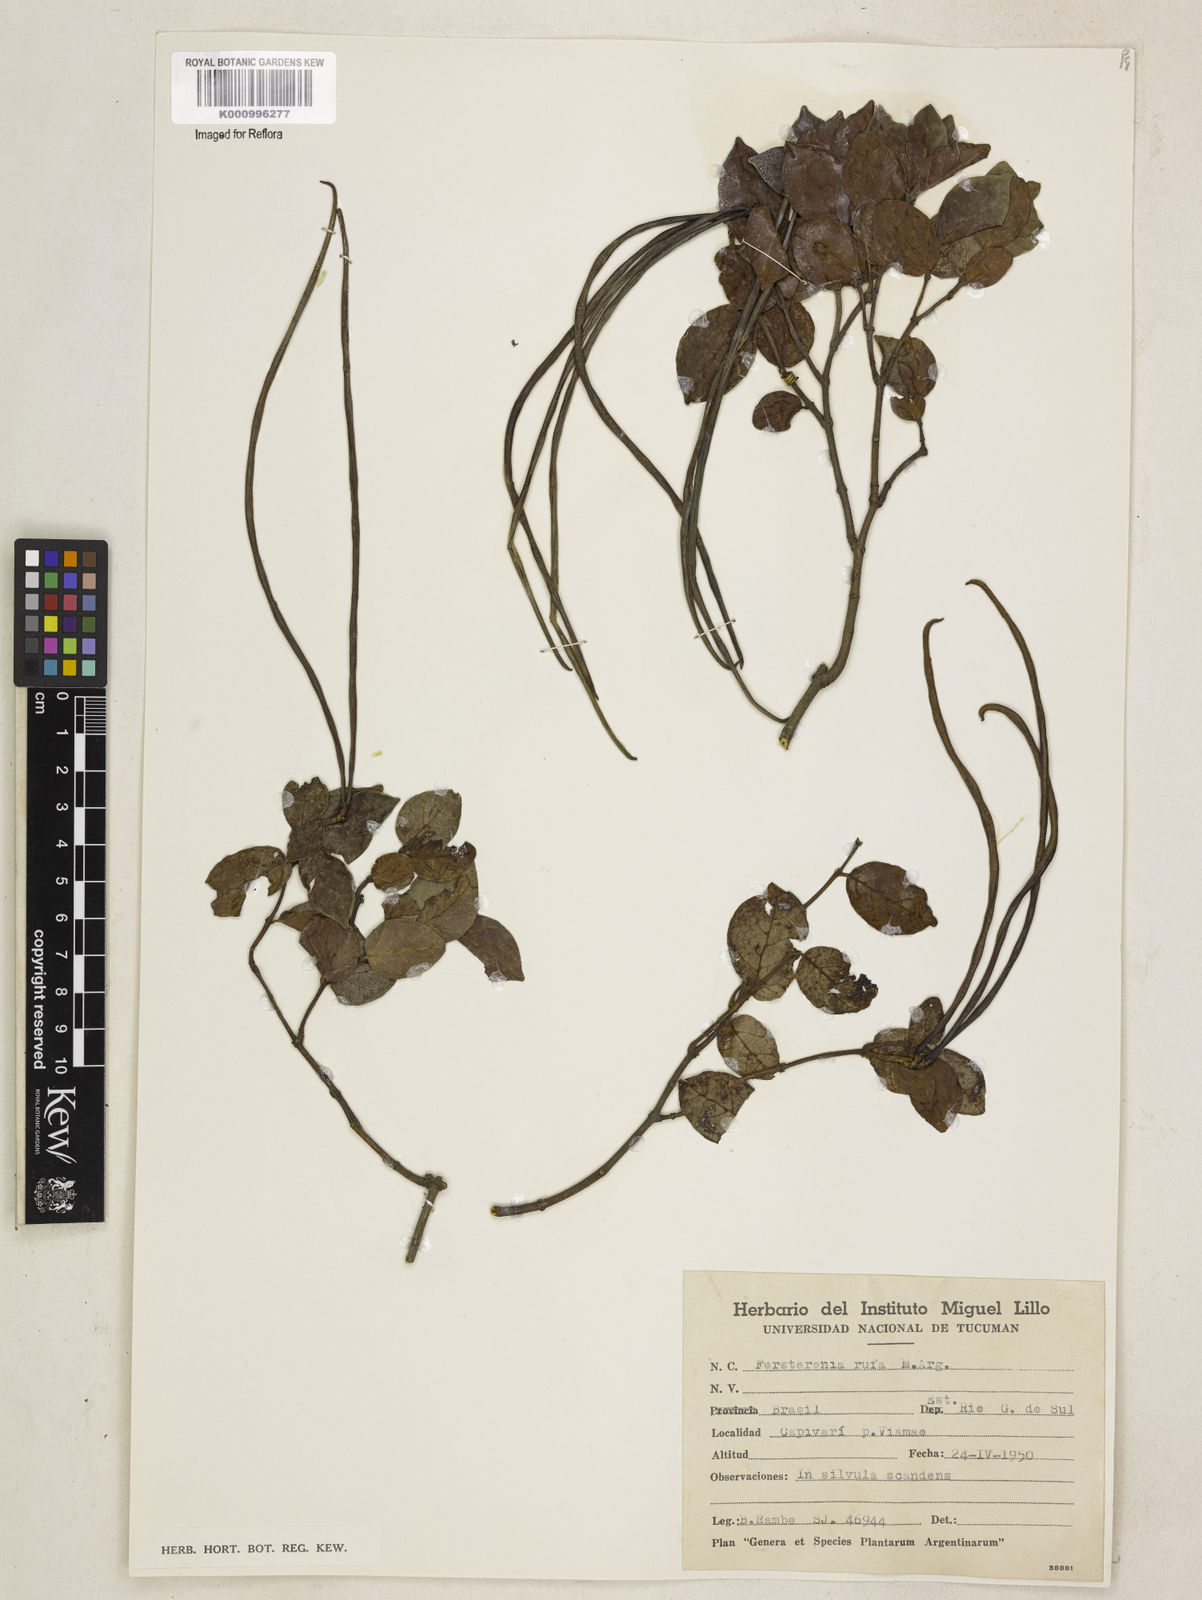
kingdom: Plantae
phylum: Tracheophyta
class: Magnoliopsida
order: Gentianales
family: Apocynaceae
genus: Forsteronia
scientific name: Forsteronia
